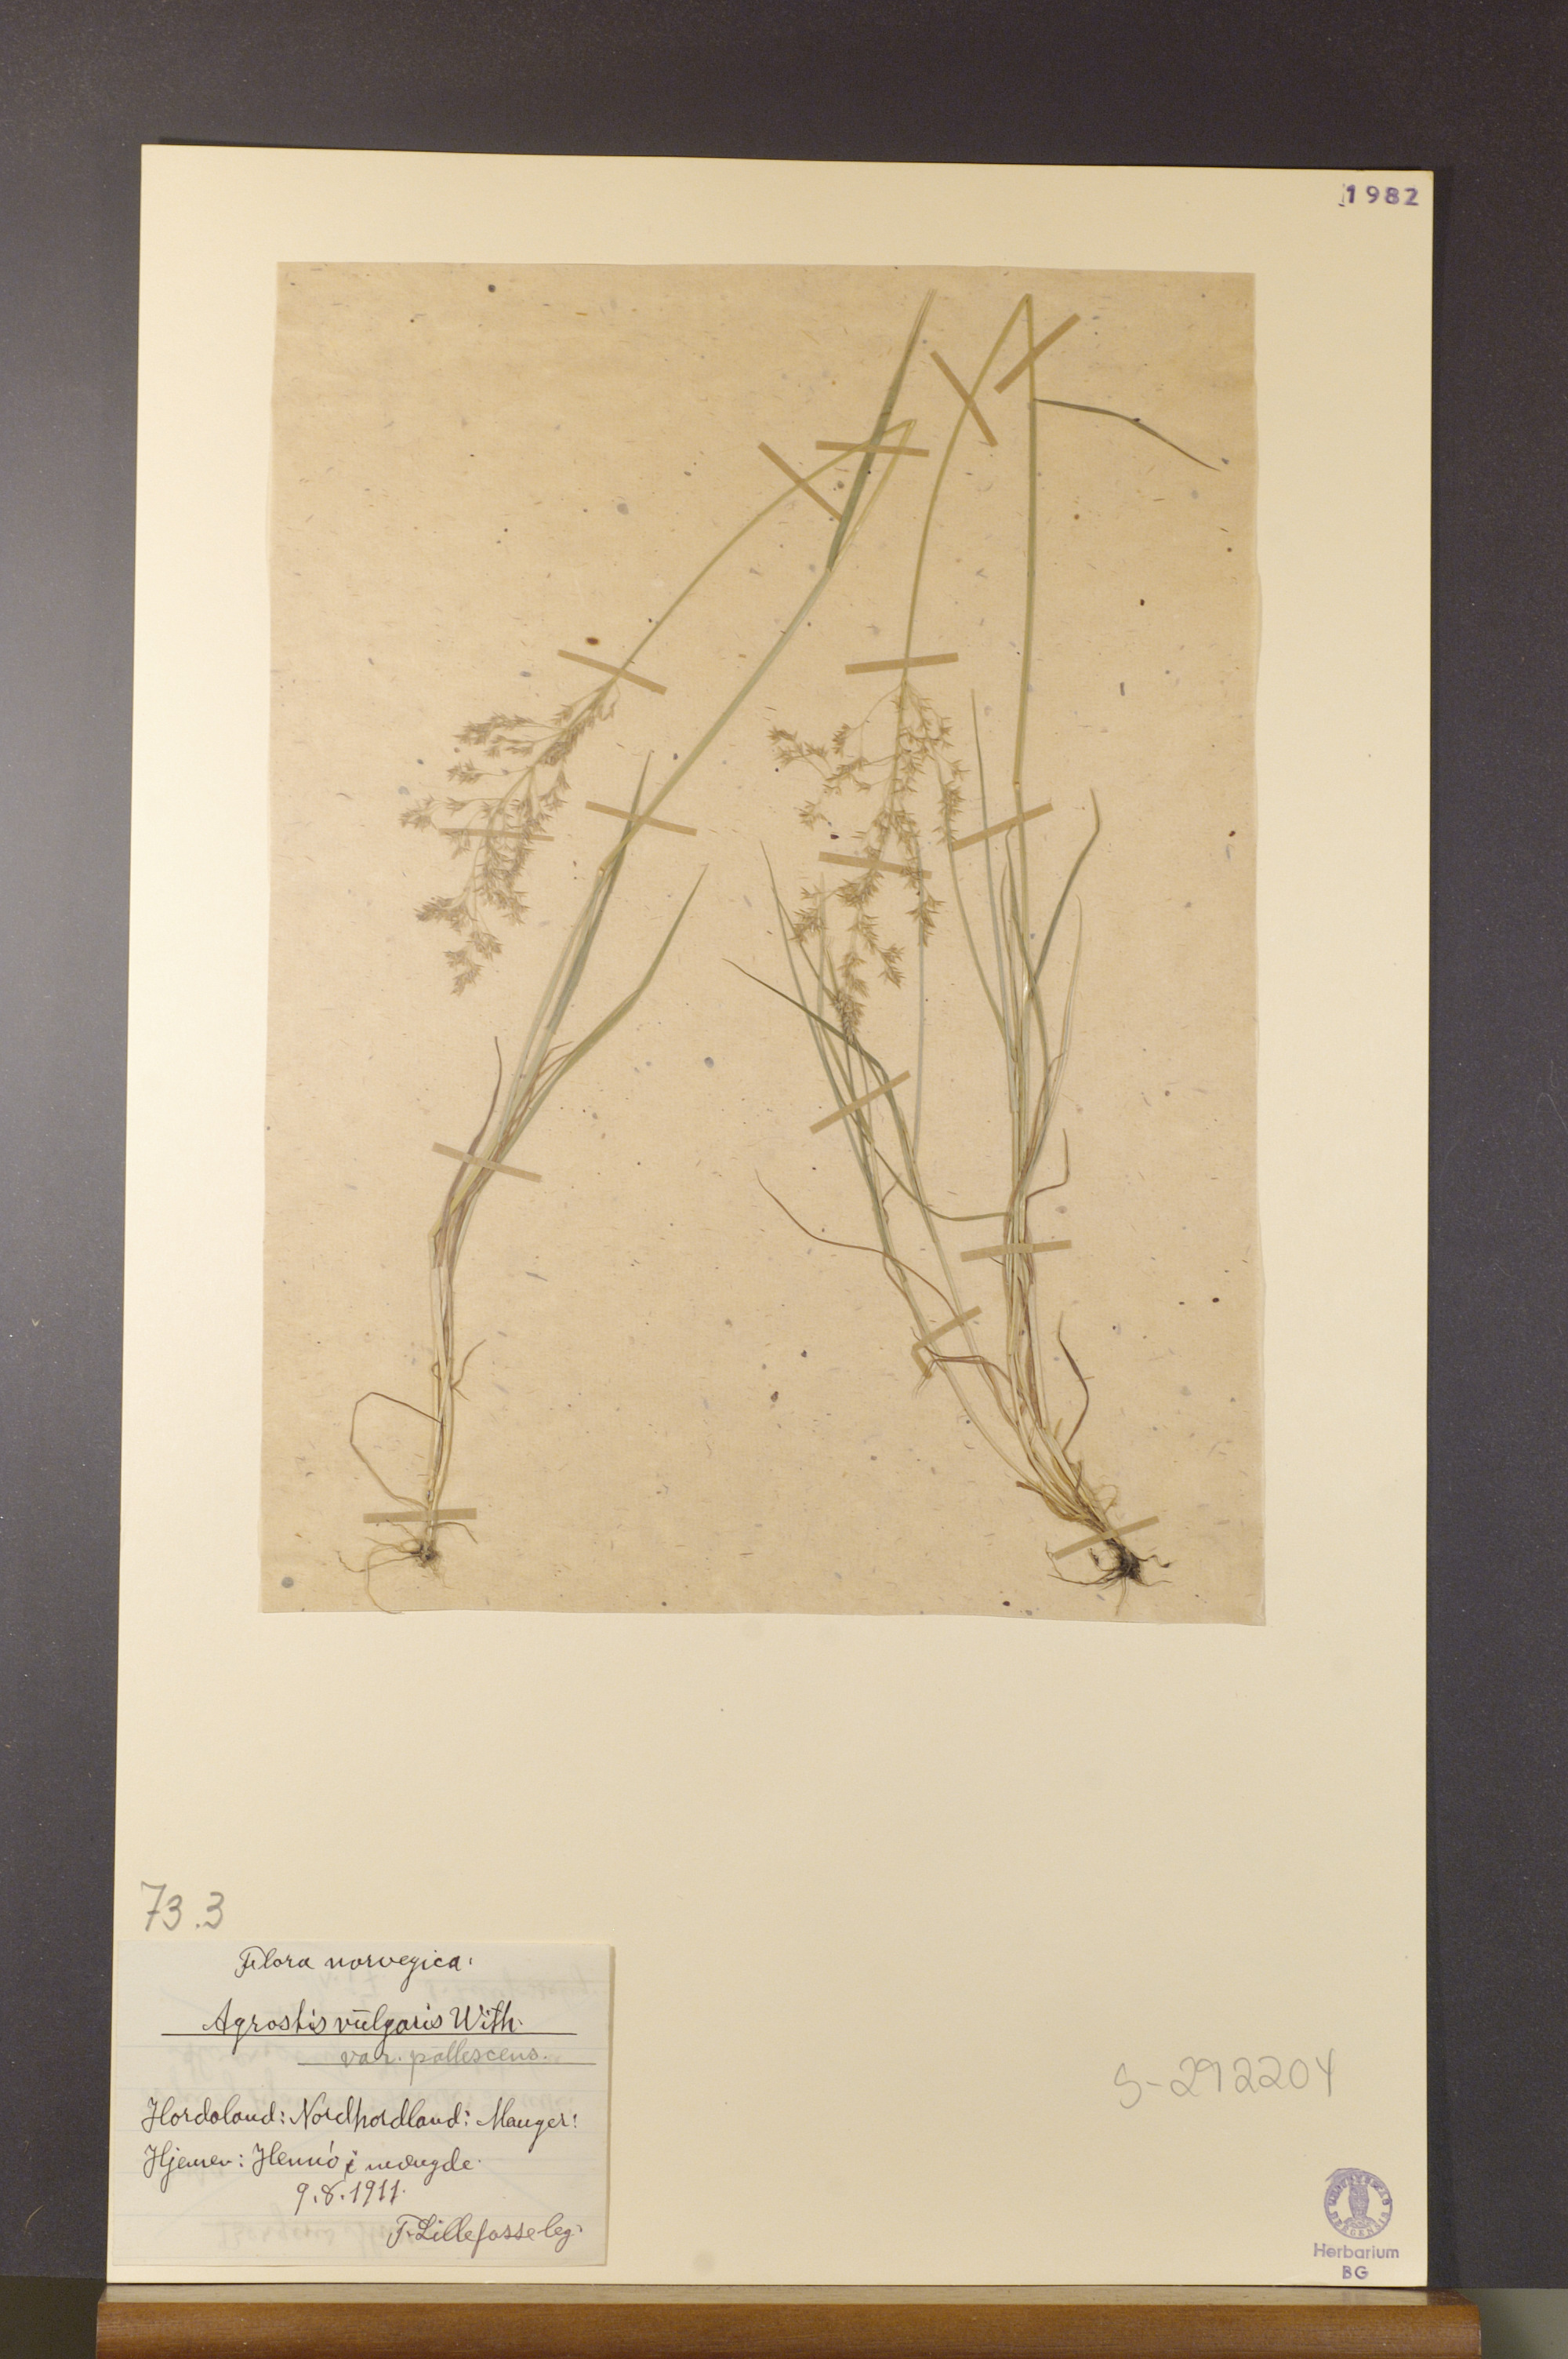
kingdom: Plantae
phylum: Tracheophyta
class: Liliopsida
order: Poales
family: Poaceae
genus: Agrostis
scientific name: Agrostis capillaris
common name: Colonial bentgrass
